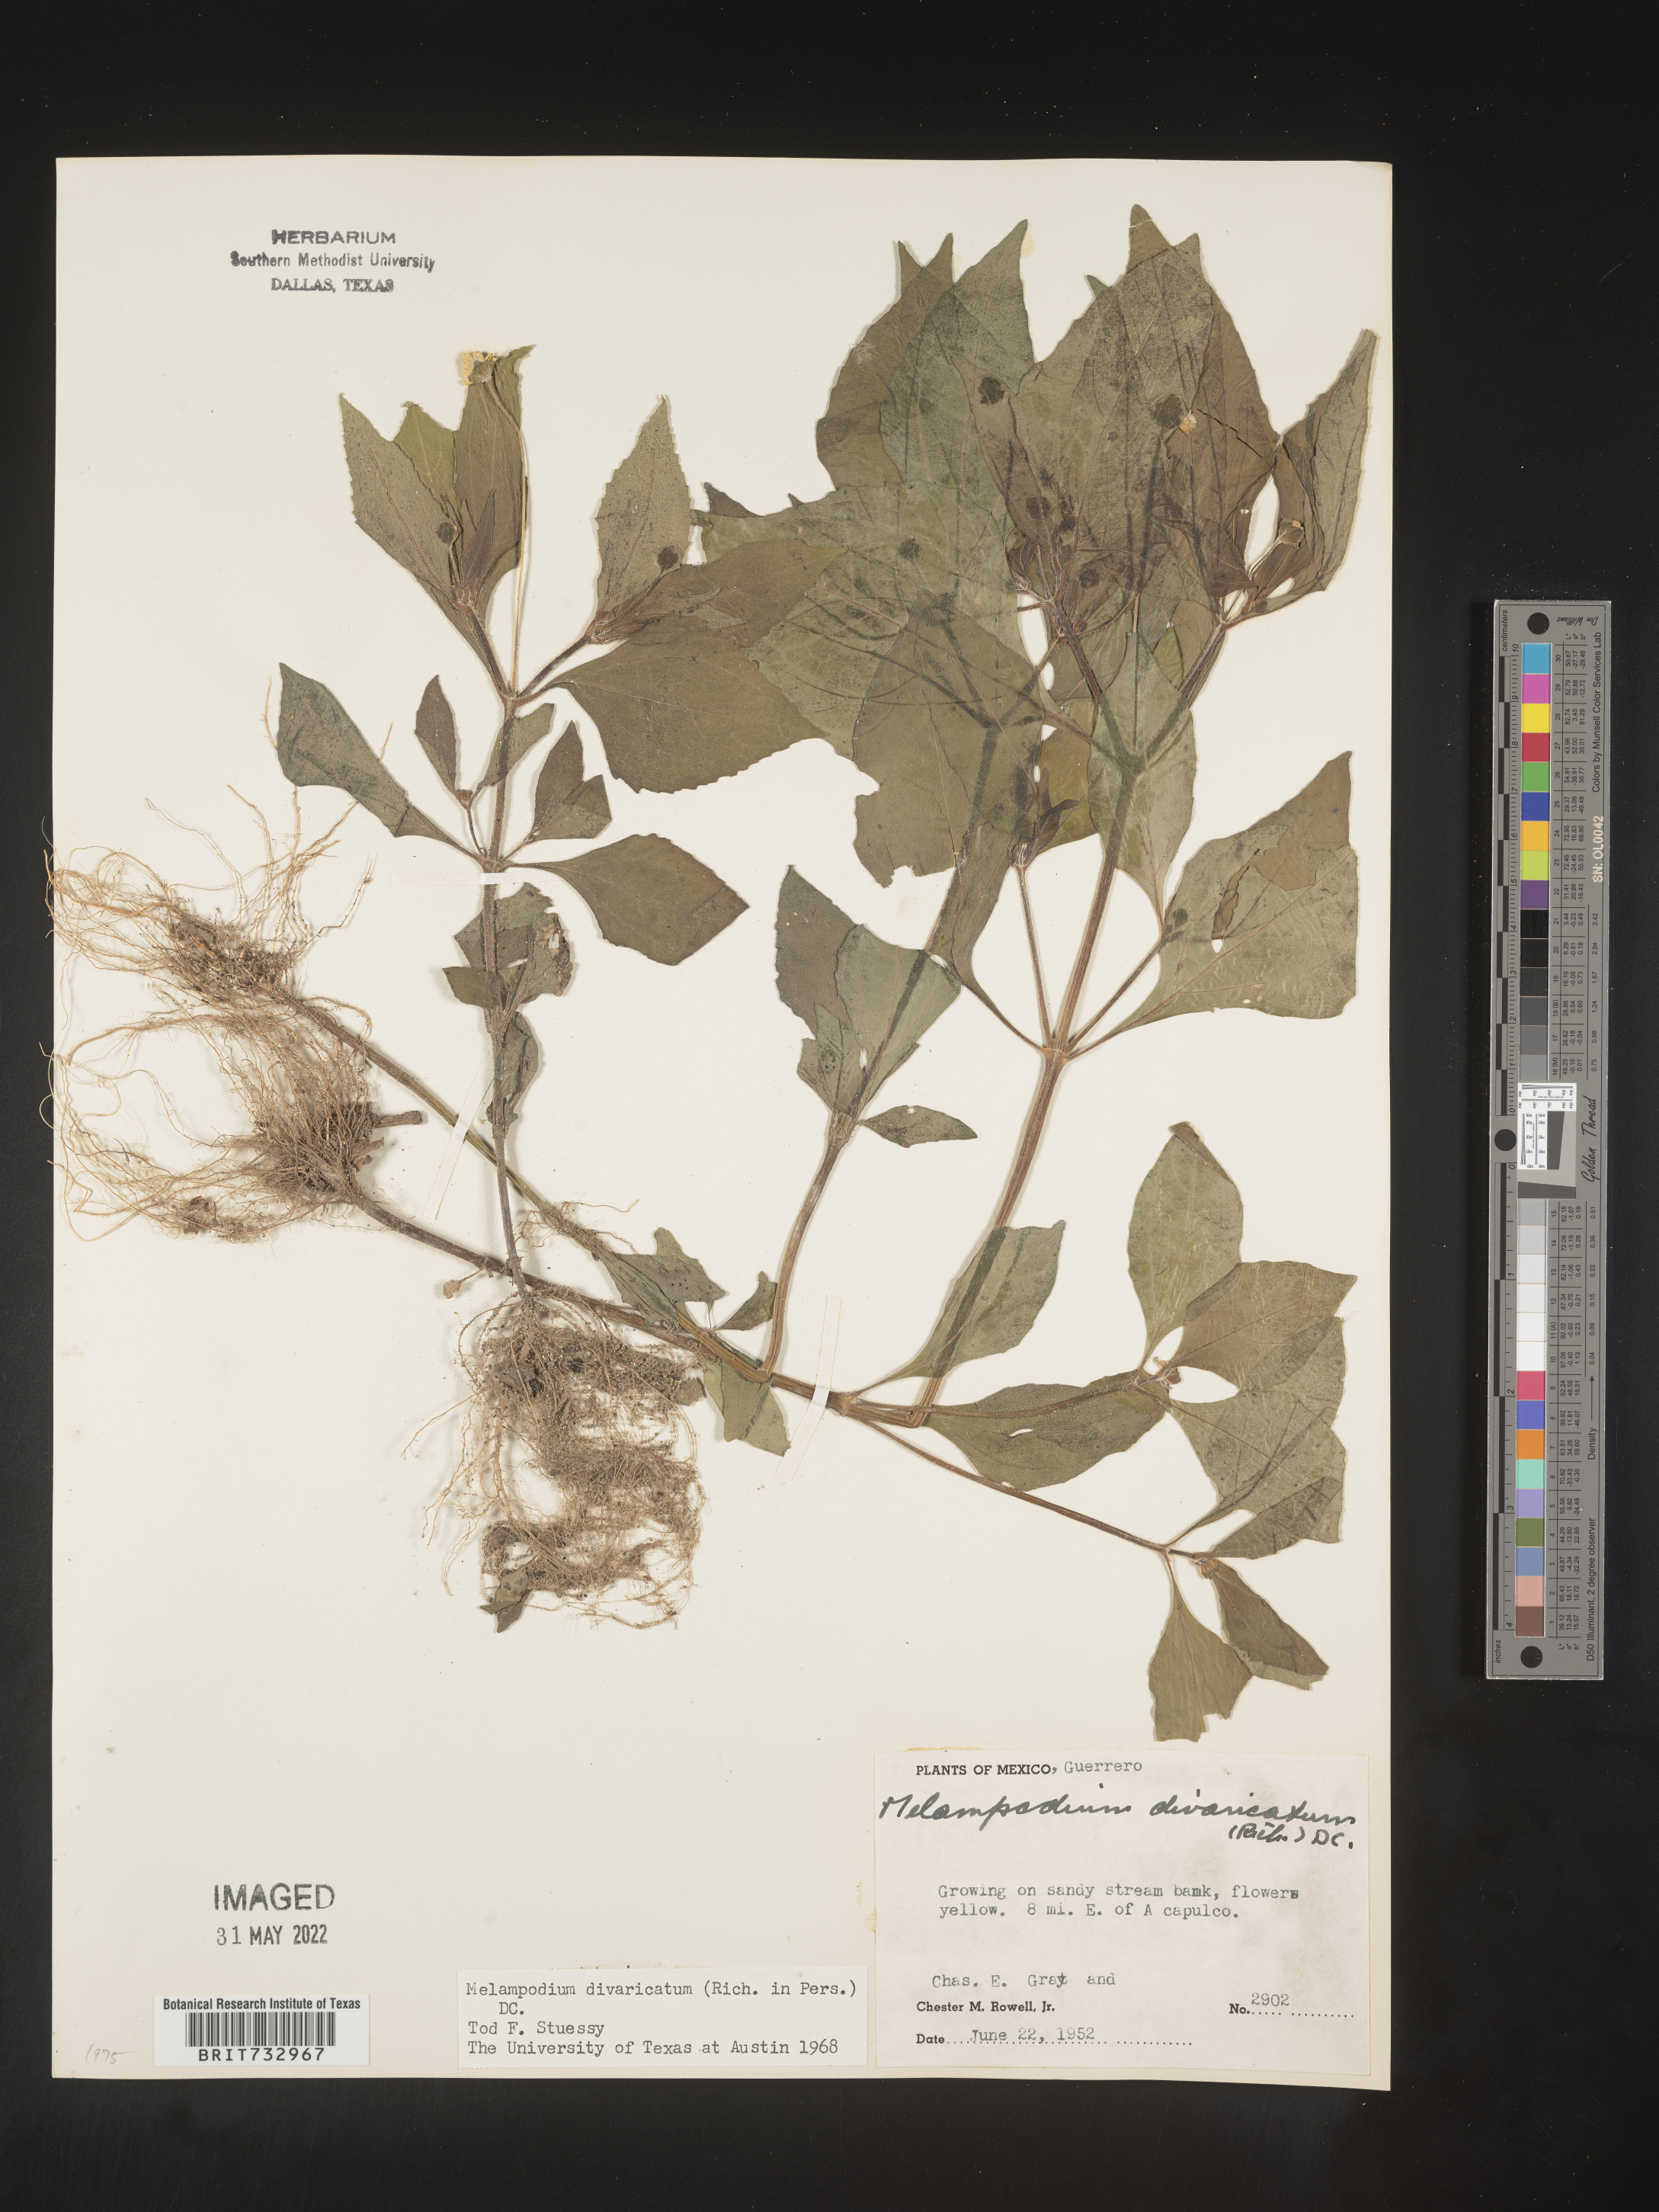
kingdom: Plantae
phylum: Tracheophyta
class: Magnoliopsida
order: Asterales
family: Asteraceae
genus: Melampodium
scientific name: Melampodium
